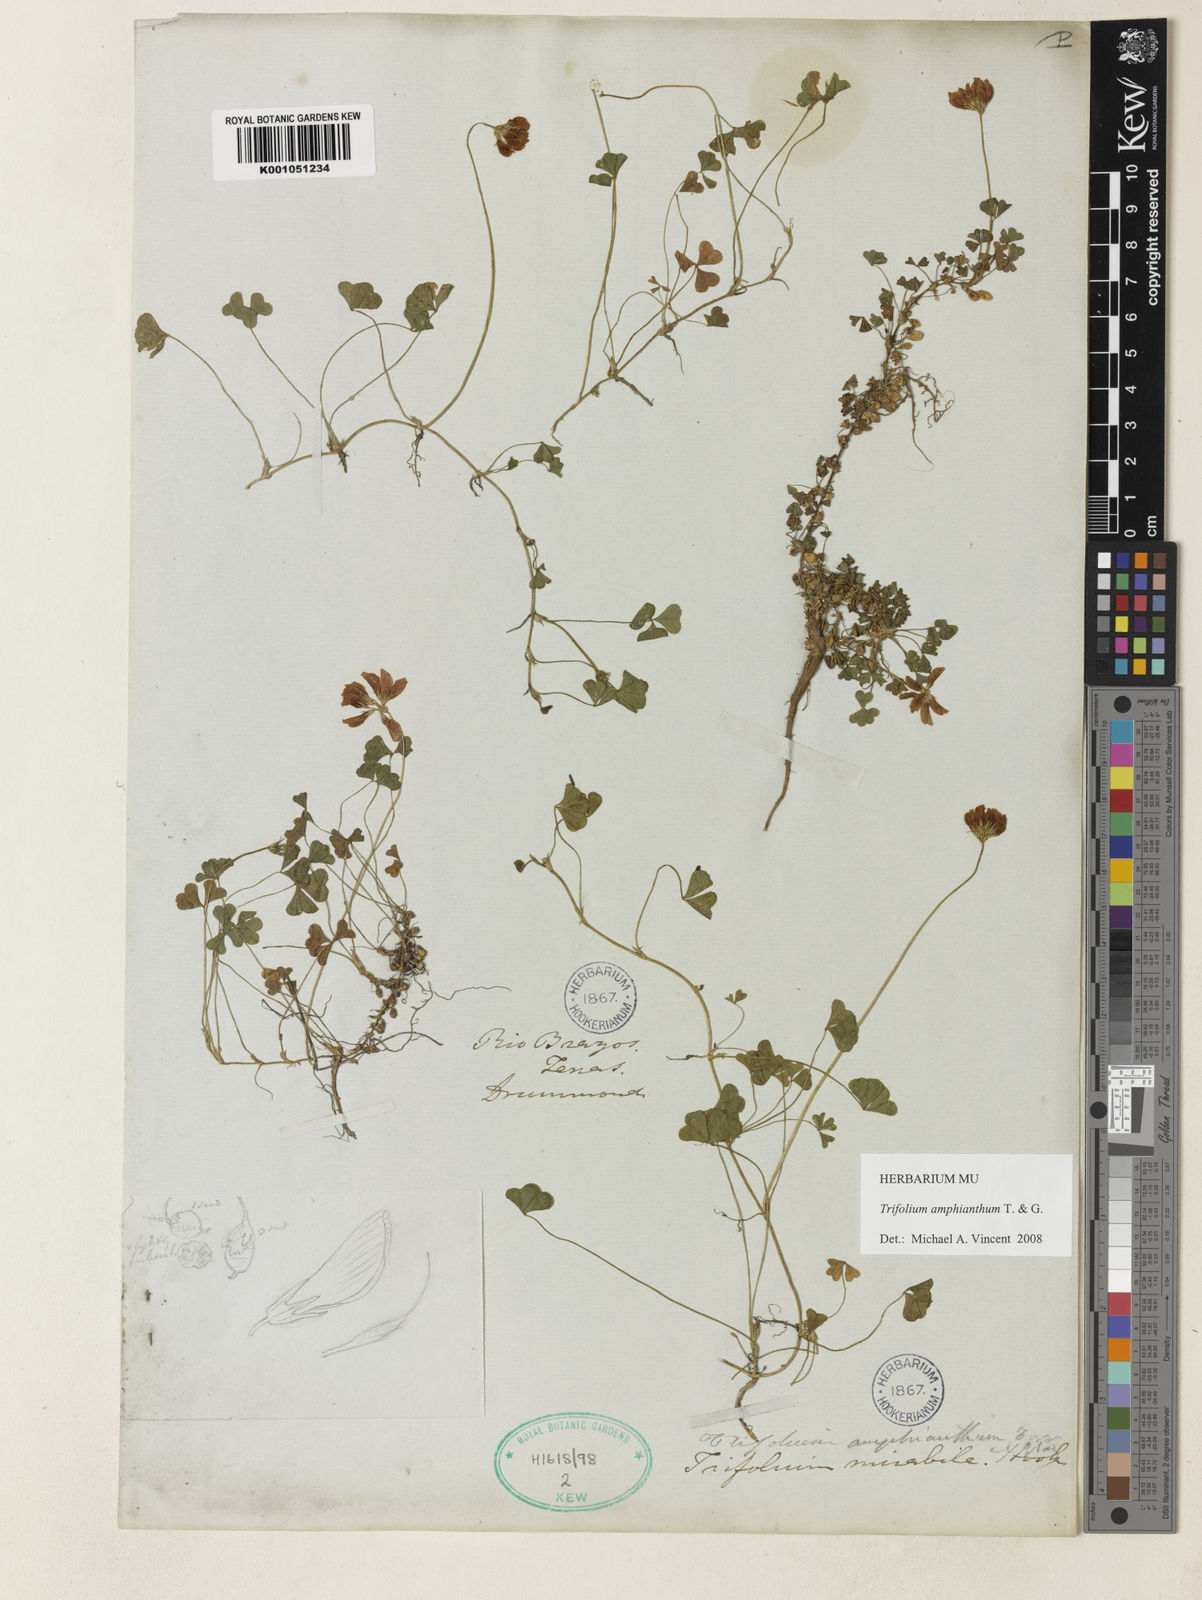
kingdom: Plantae
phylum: Tracheophyta
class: Magnoliopsida
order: Fabales
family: Fabaceae
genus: Trifolium
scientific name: Trifolium amphianthum
